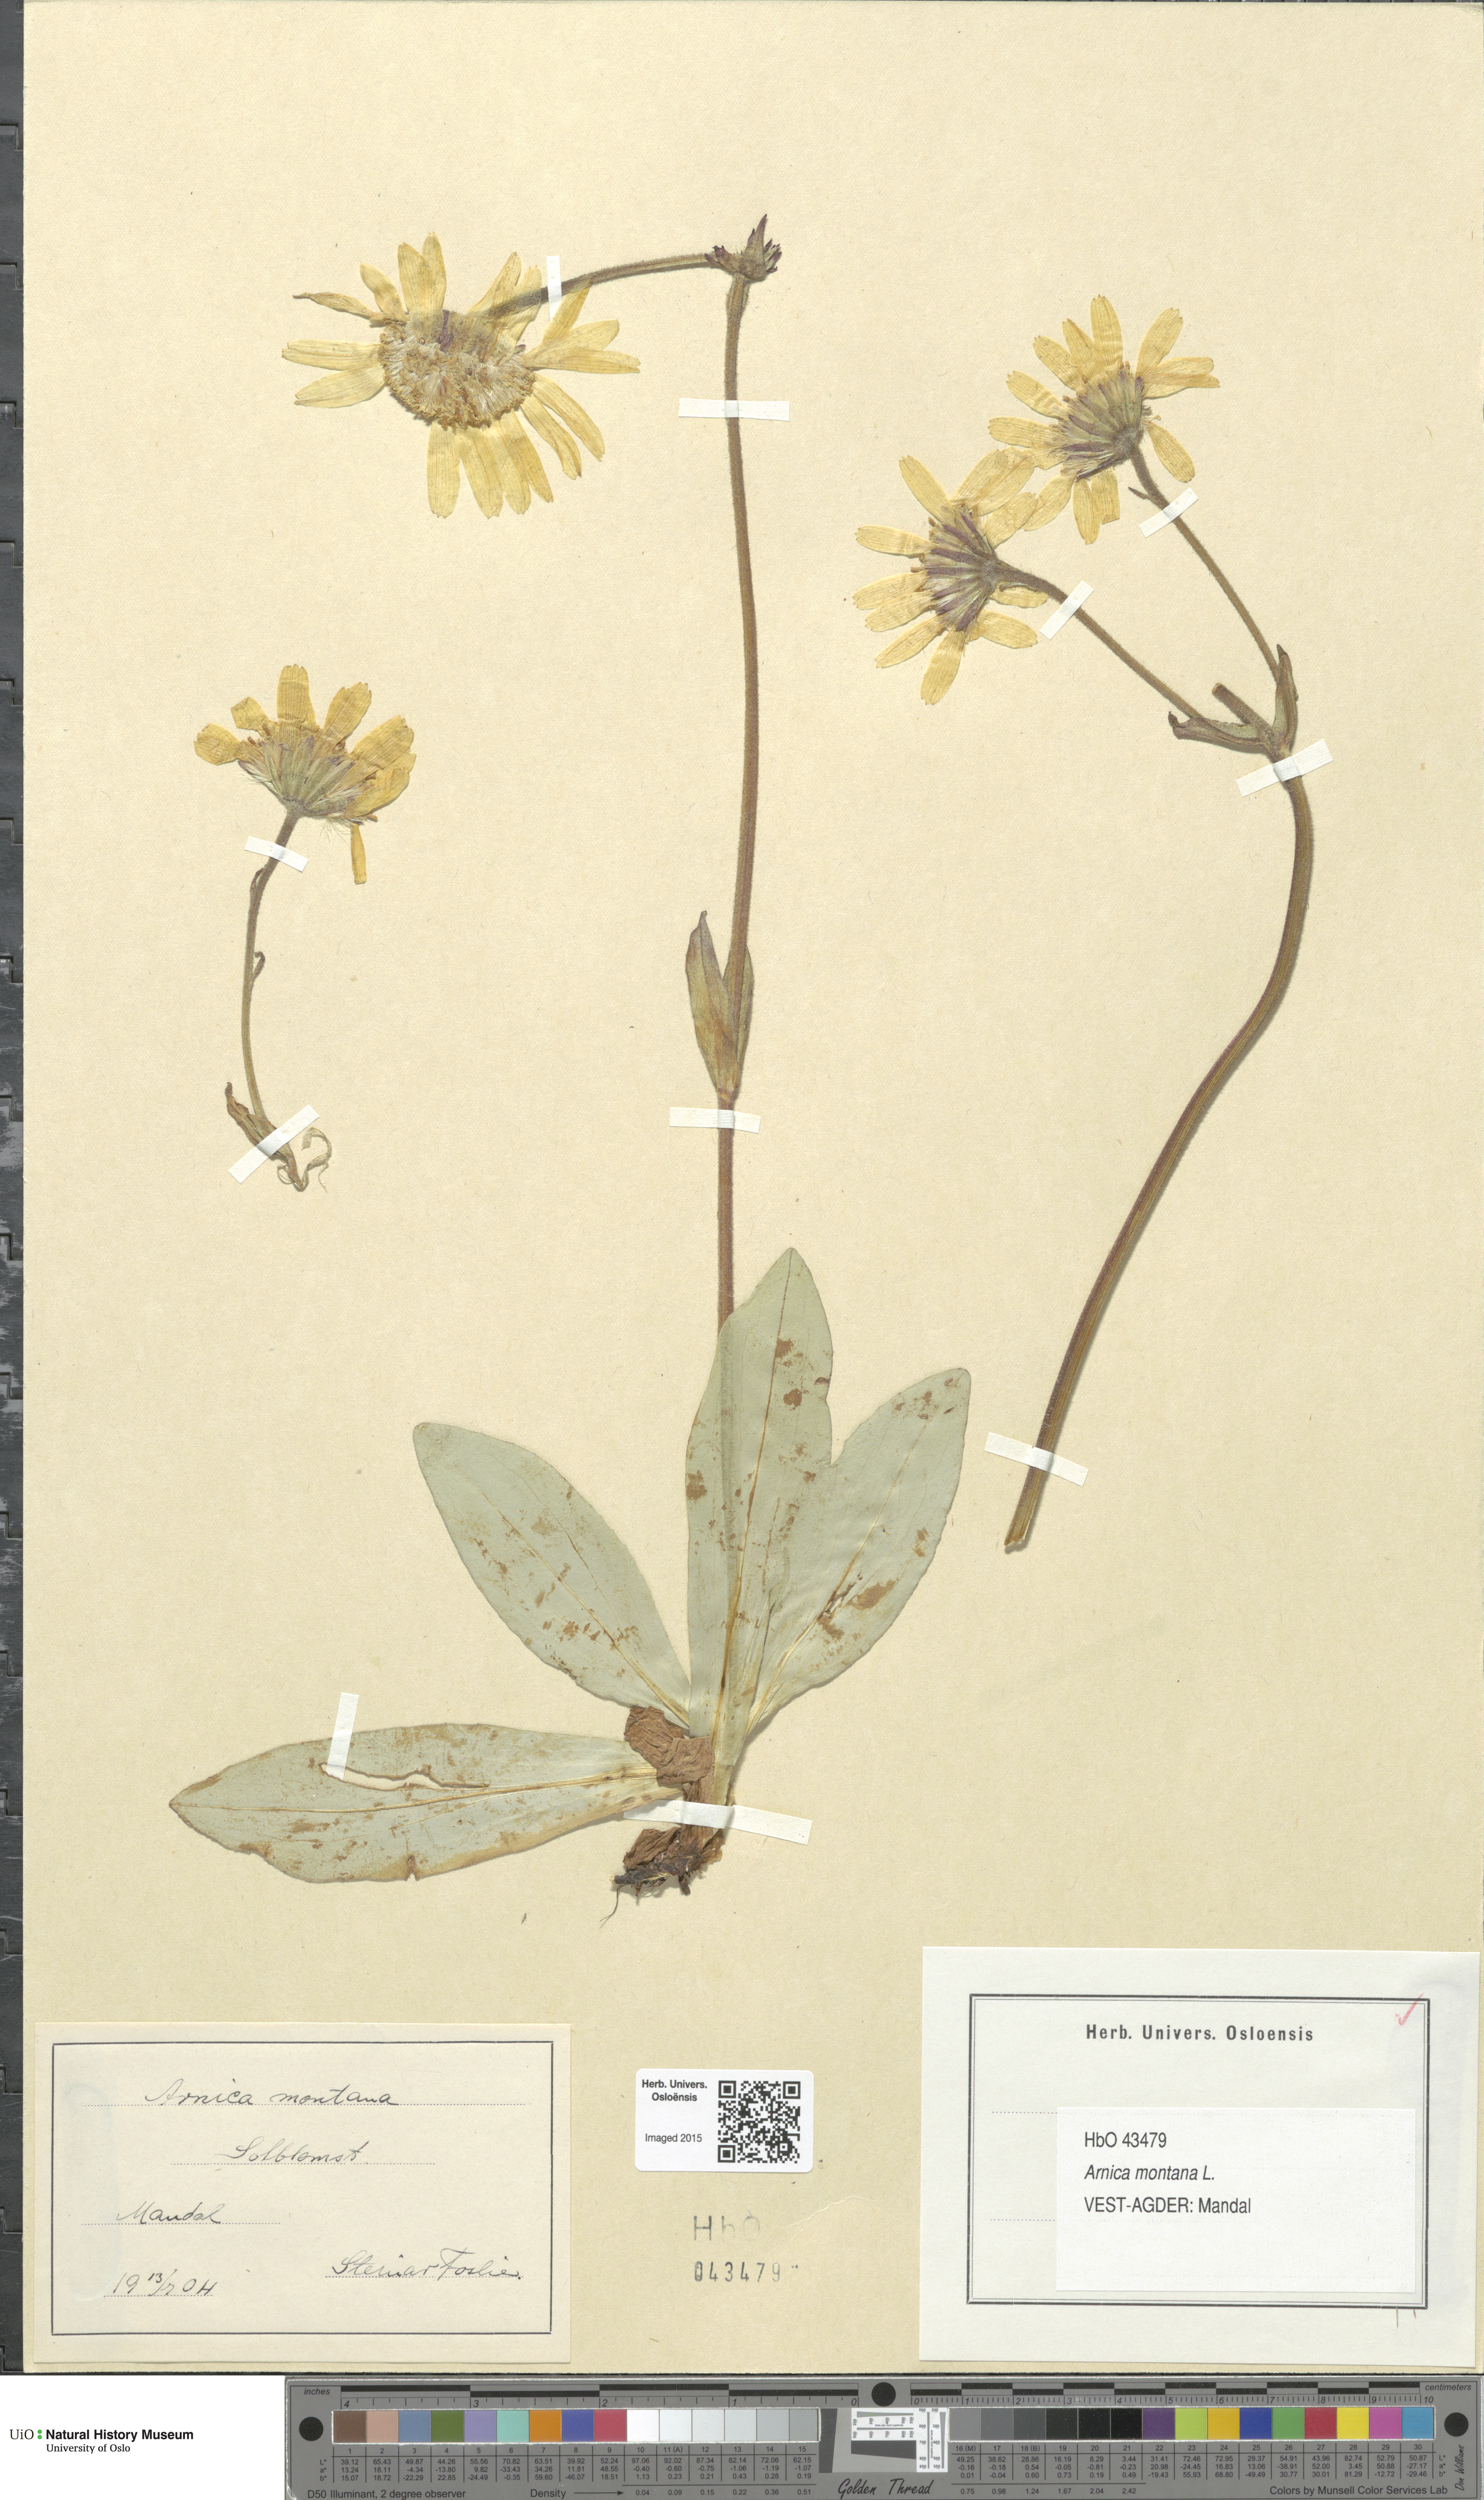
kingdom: Plantae
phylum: Tracheophyta
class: Magnoliopsida
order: Asterales
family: Asteraceae
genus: Arnica
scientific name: Arnica montana
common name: Leopard's bane
